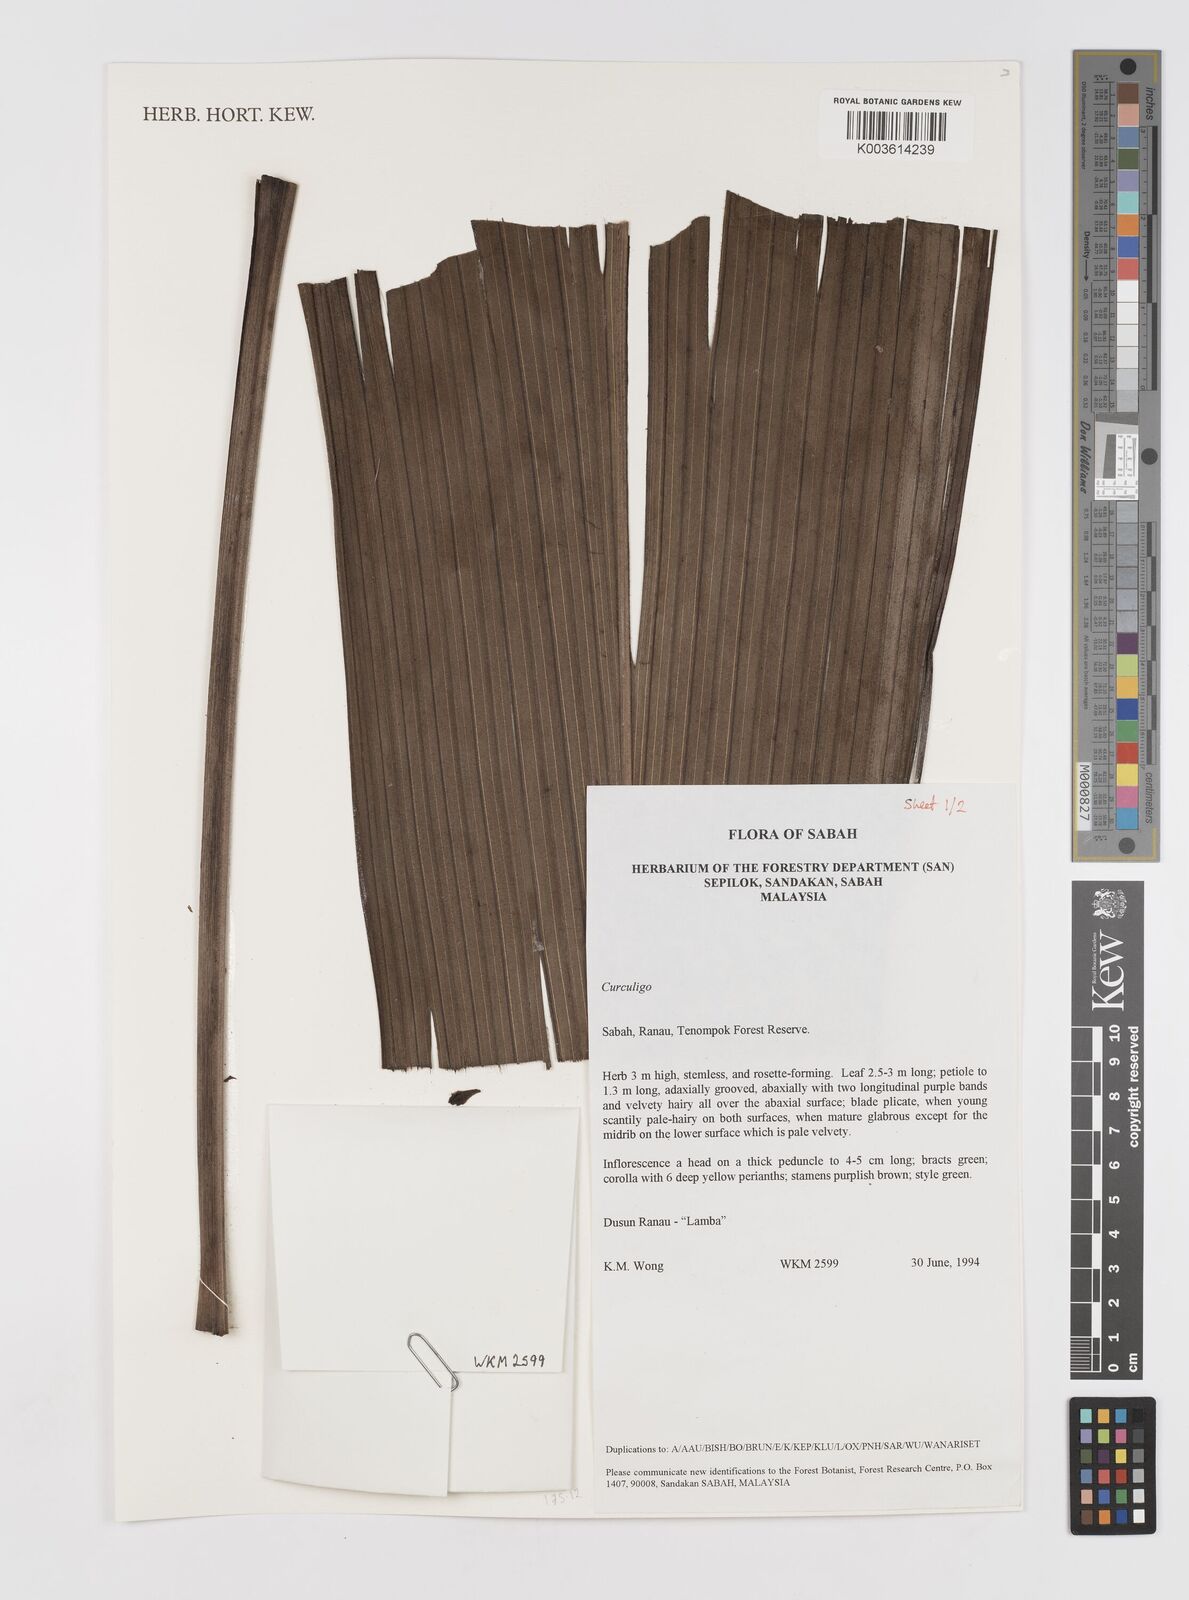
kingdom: Plantae
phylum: Tracheophyta
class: Liliopsida
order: Asparagales
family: Hypoxidaceae
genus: Curculigo
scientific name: Curculigo
